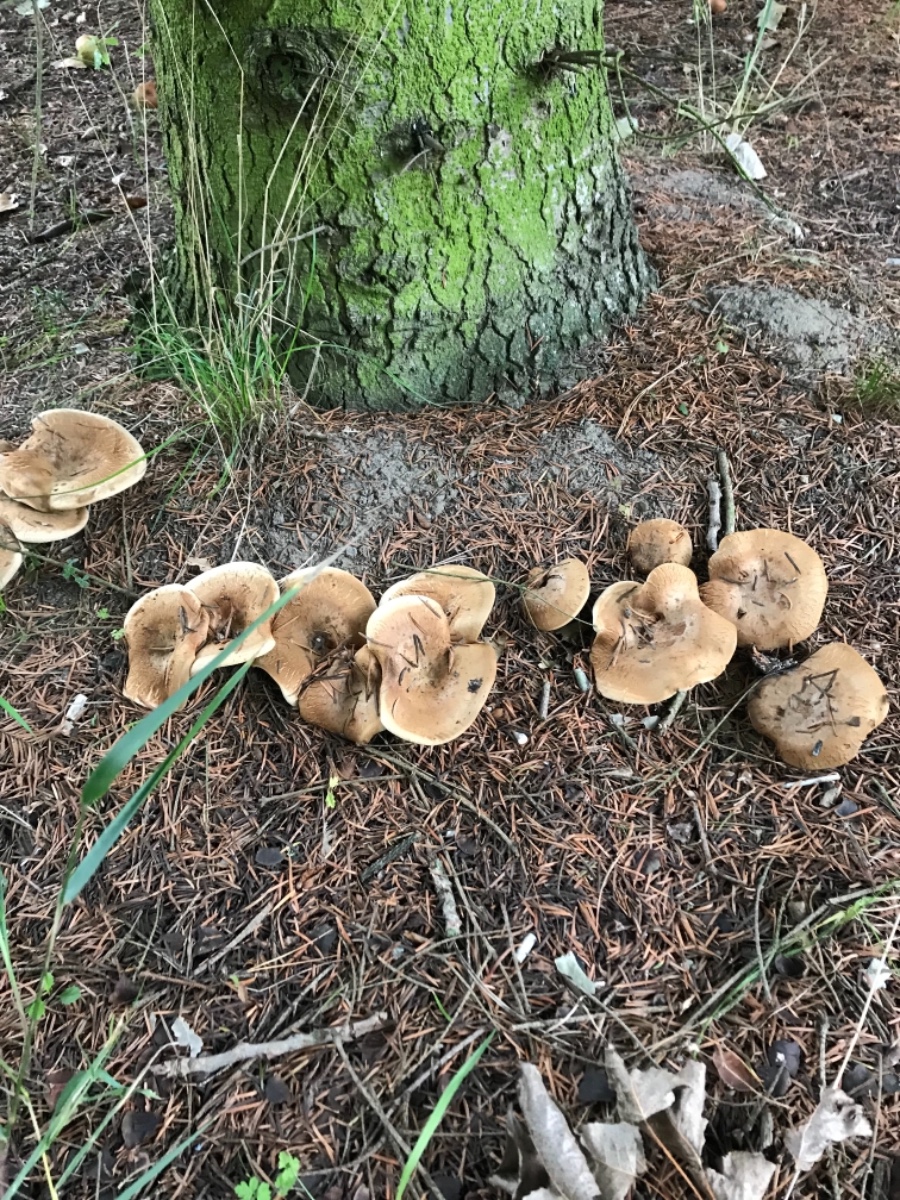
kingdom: Fungi
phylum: Basidiomycota
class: Agaricomycetes
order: Boletales
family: Paxillaceae
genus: Paxillus
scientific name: Paxillus involutus
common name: almindelig netbladhat
